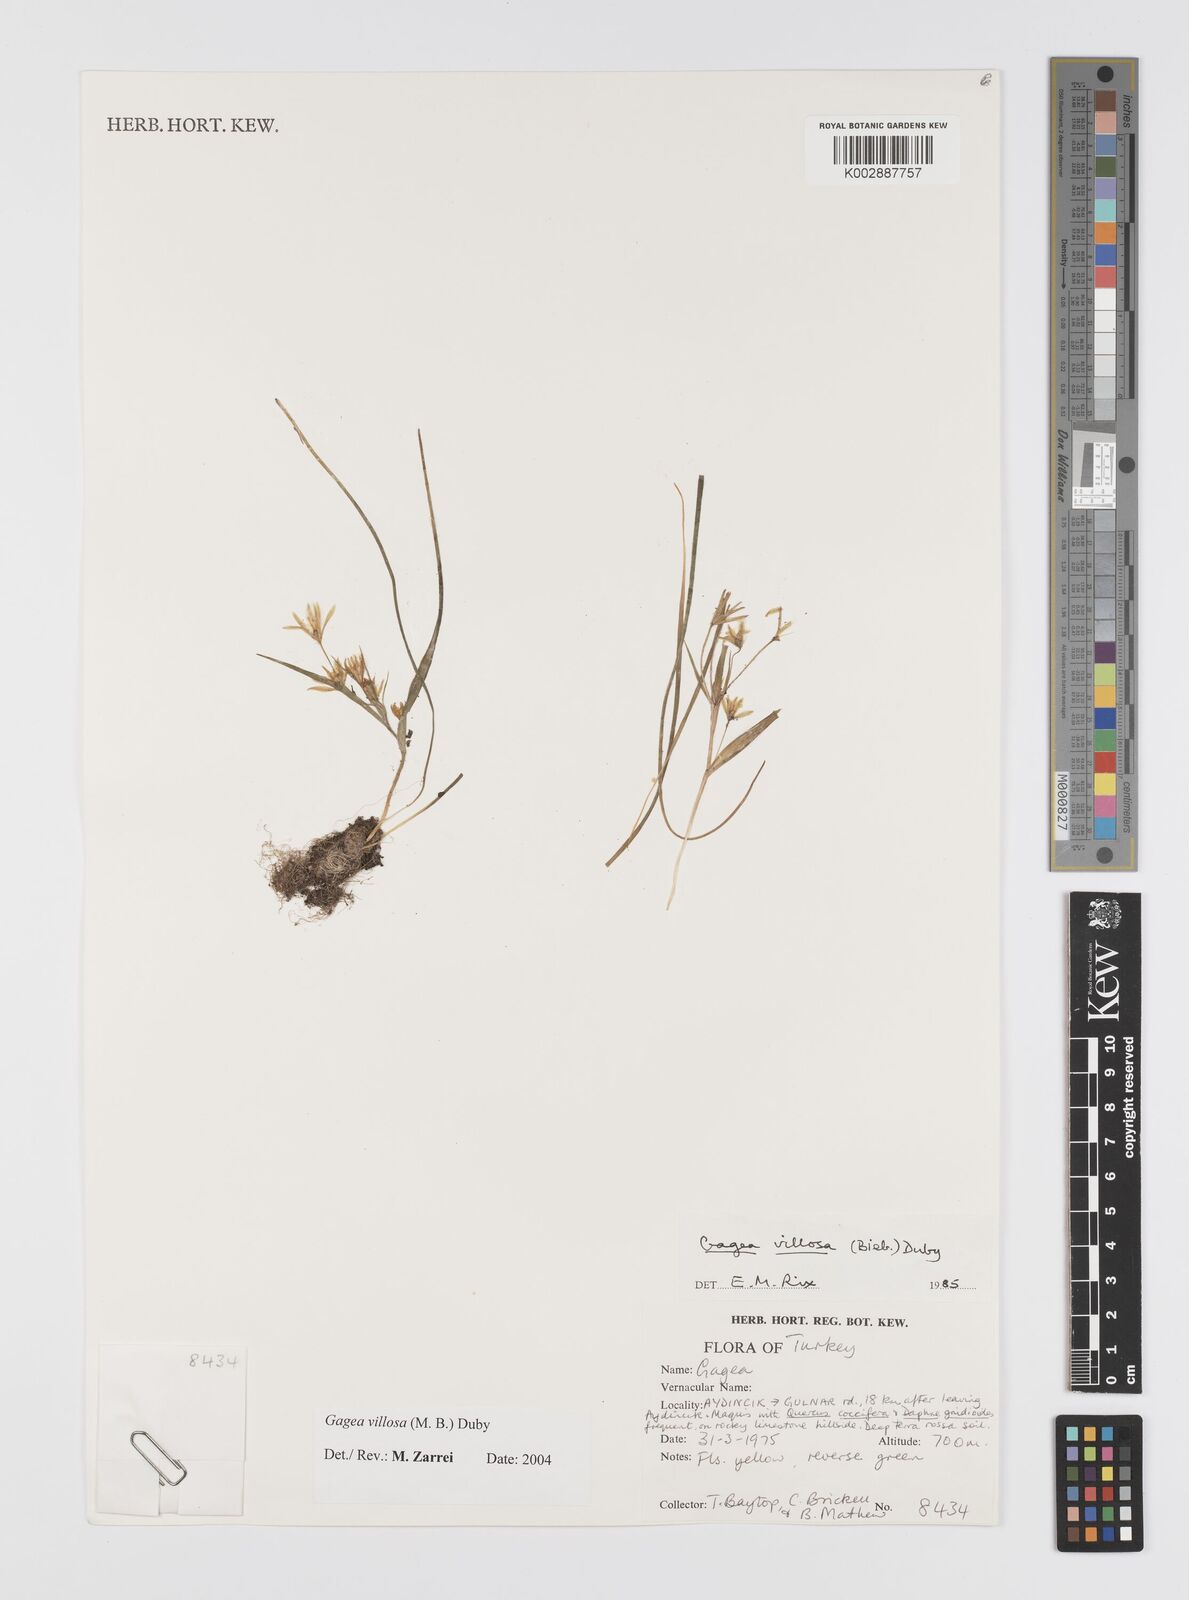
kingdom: Plantae
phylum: Tracheophyta
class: Liliopsida
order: Liliales
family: Liliaceae
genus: Gagea
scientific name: Gagea villosa
